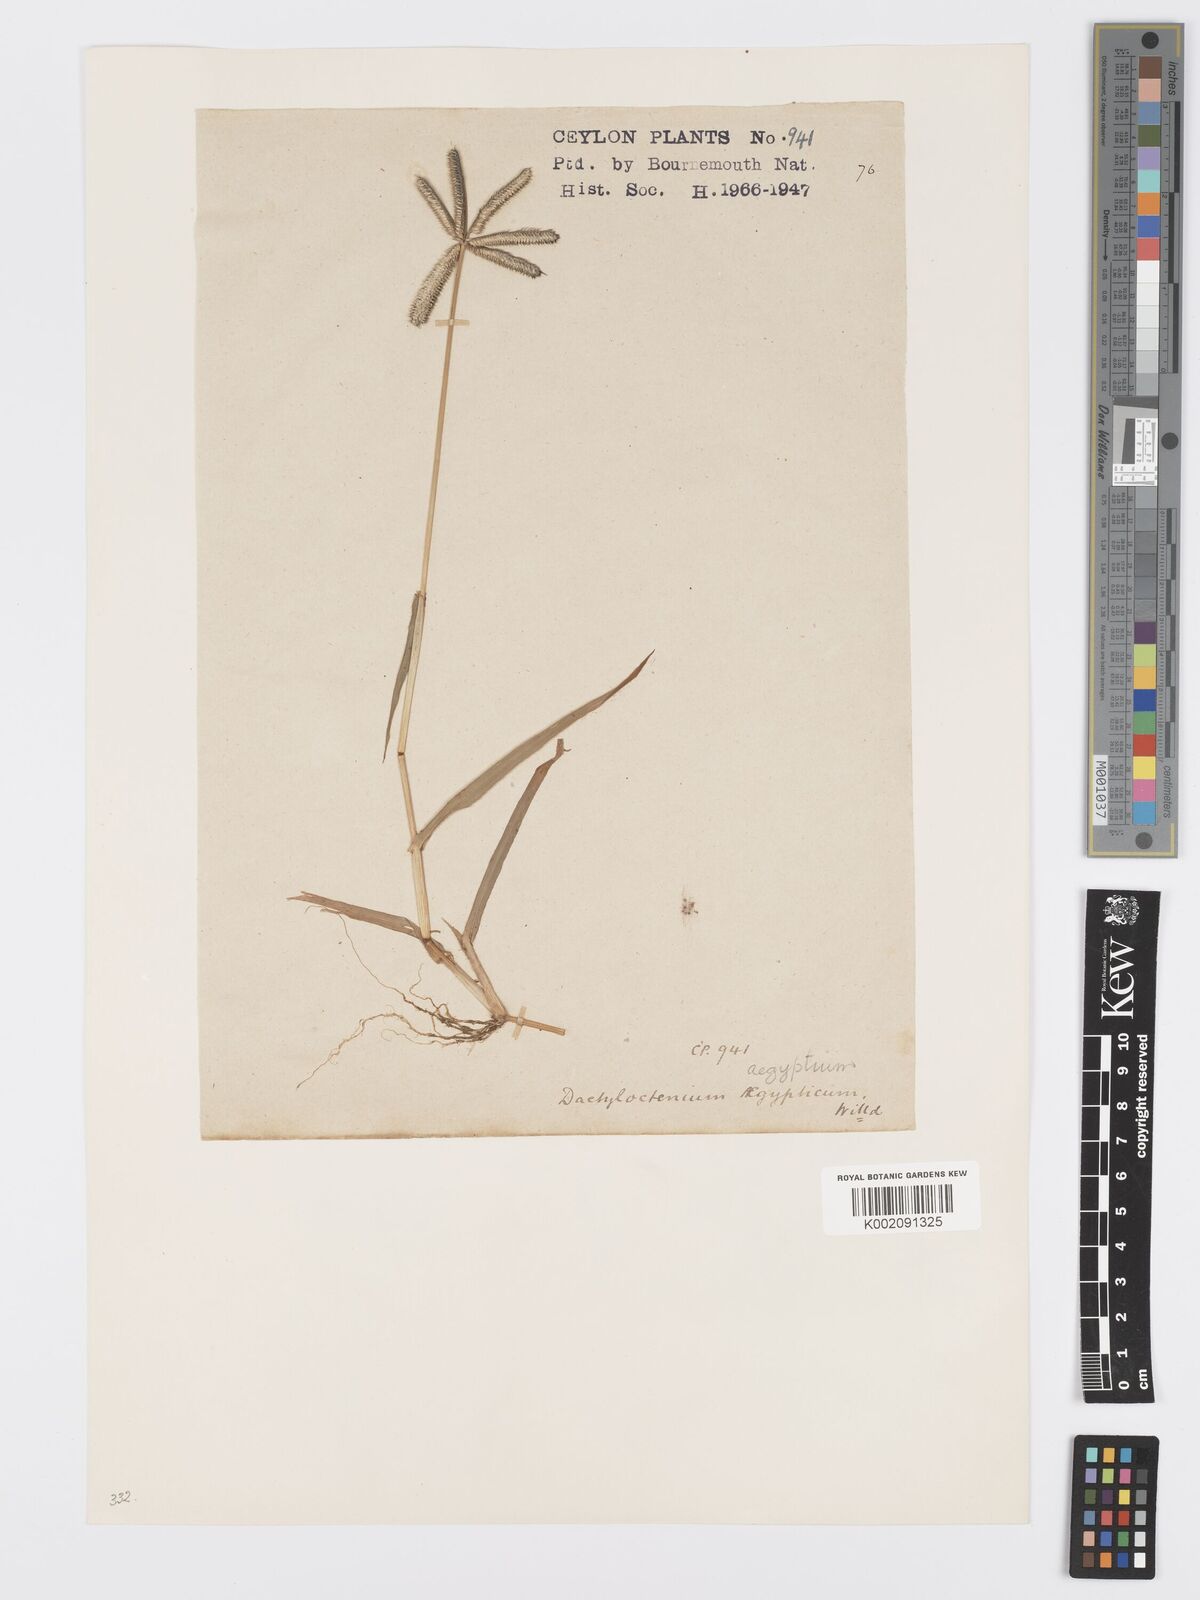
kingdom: Plantae
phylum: Tracheophyta
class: Liliopsida
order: Poales
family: Poaceae
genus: Dactyloctenium
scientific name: Dactyloctenium aegyptium
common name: Egyptian grass
